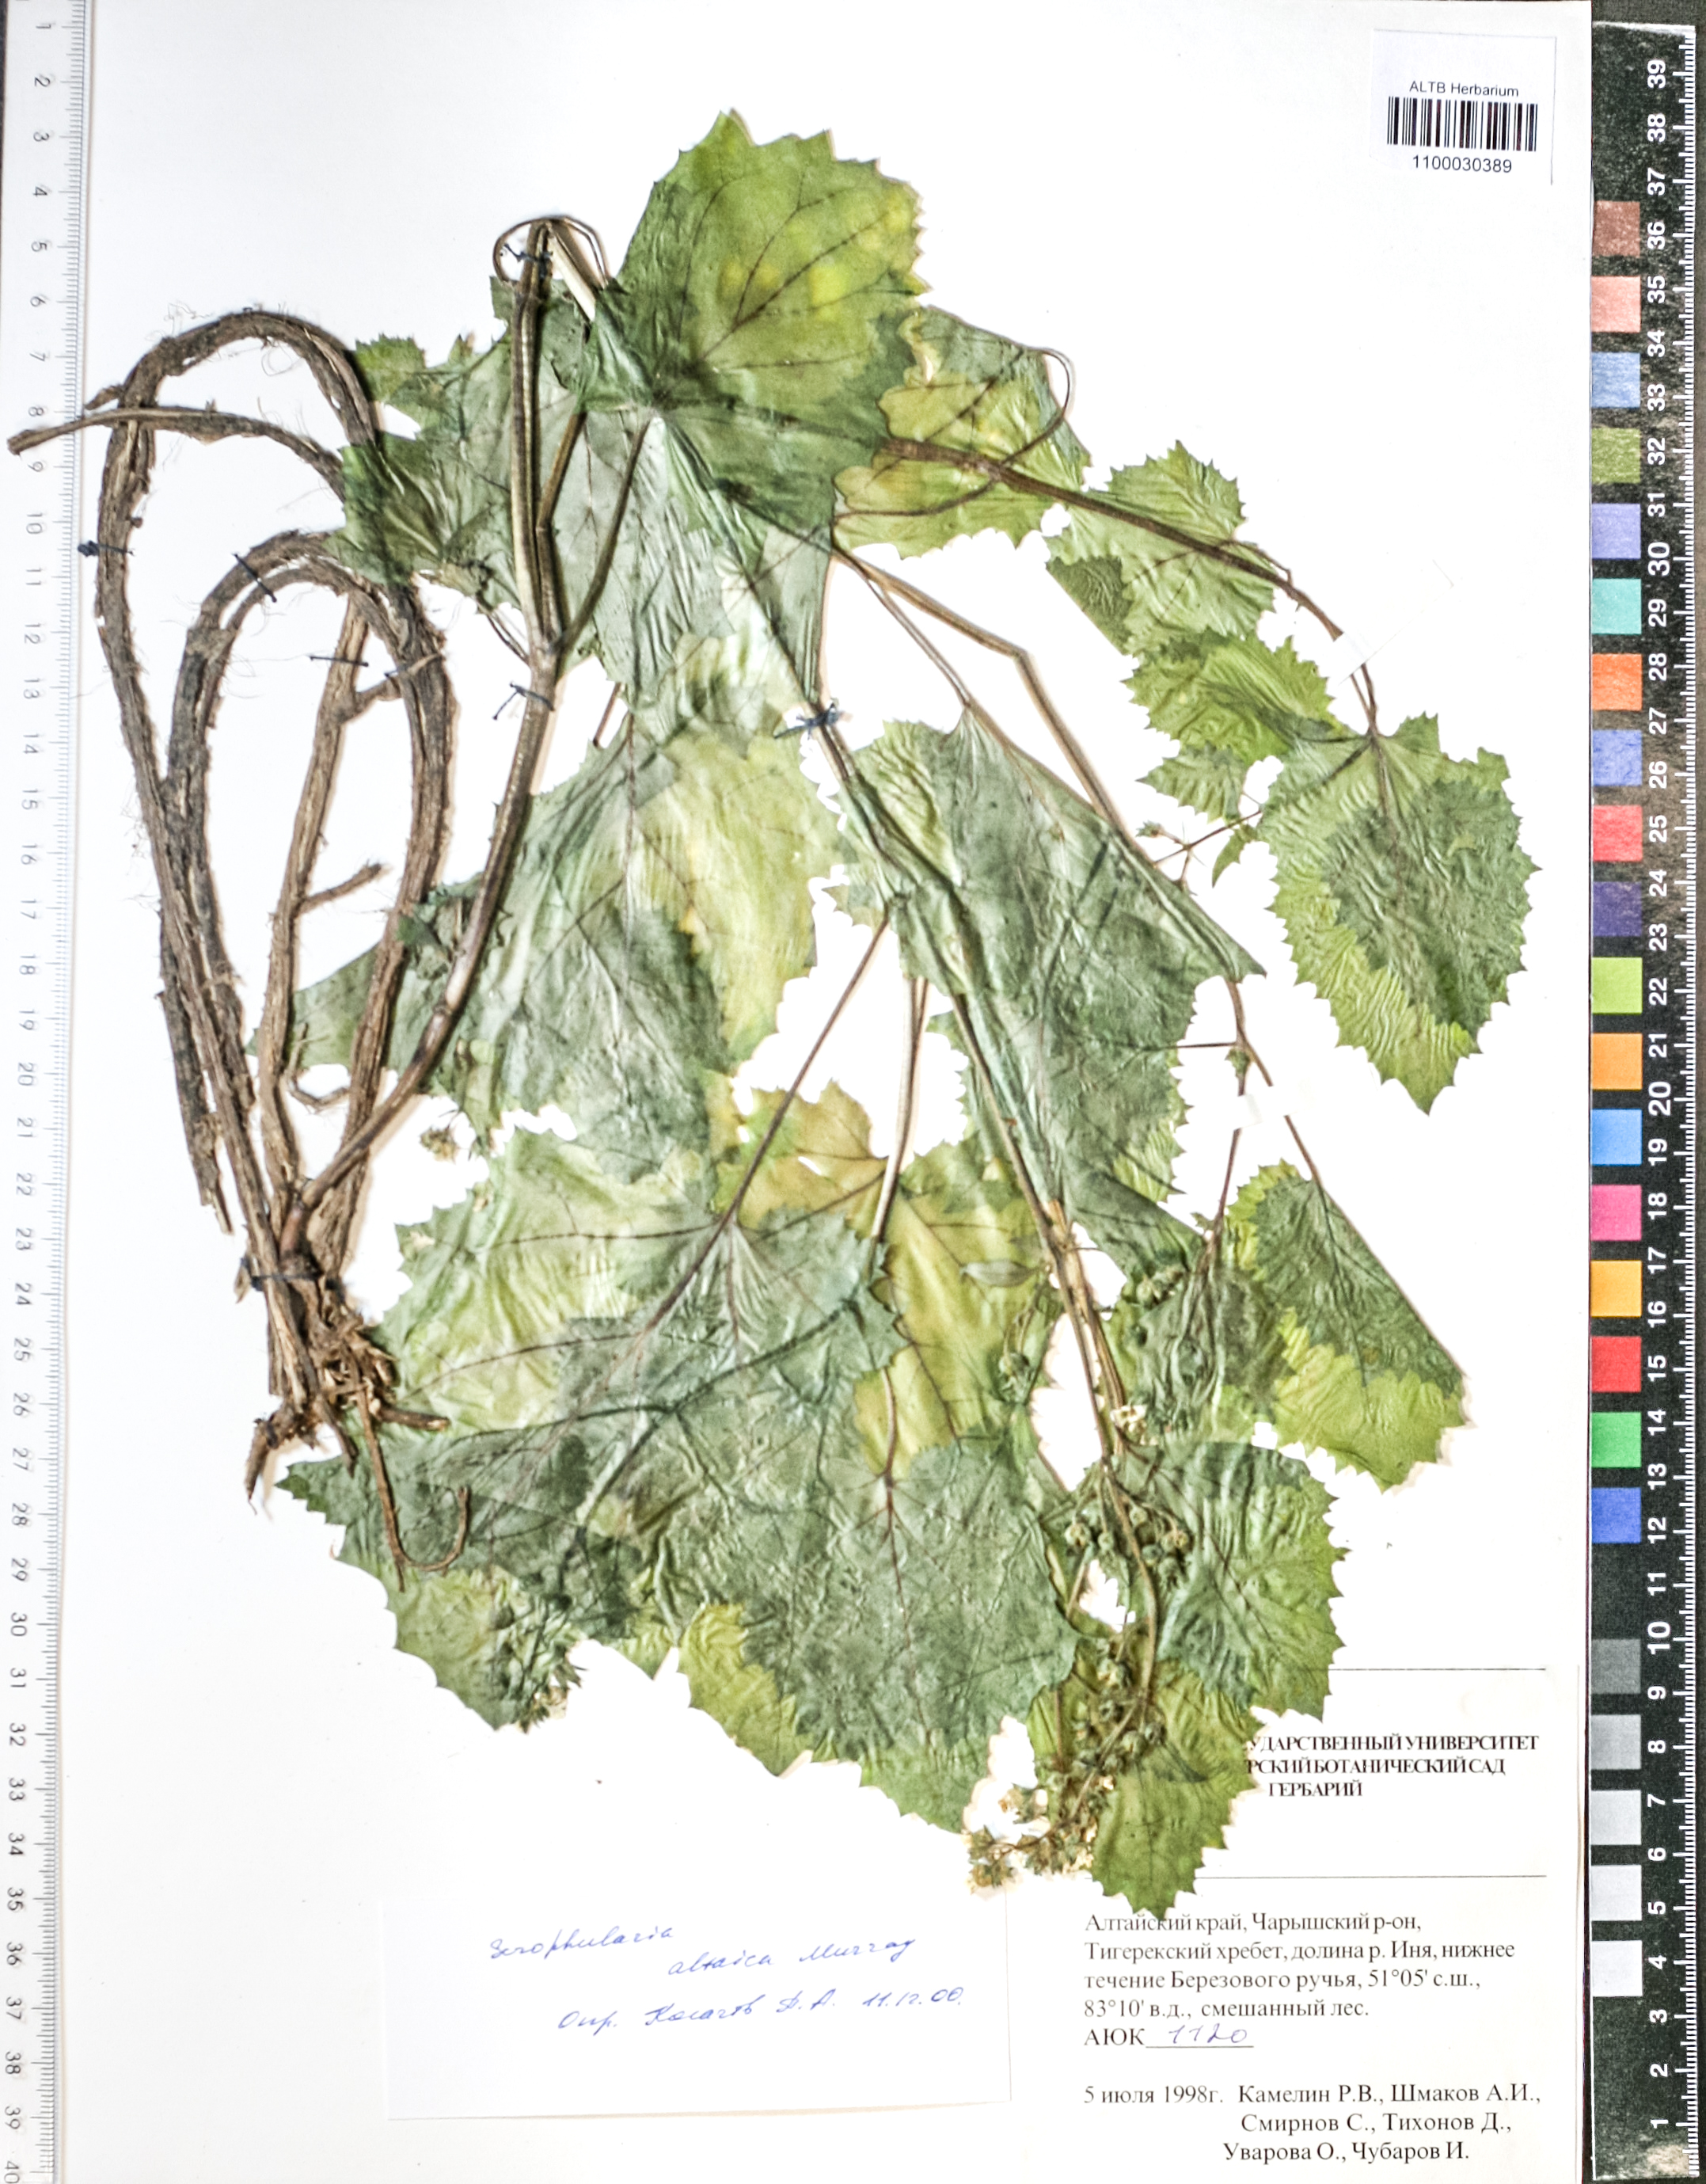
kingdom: Plantae
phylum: Tracheophyta
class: Magnoliopsida
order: Lamiales
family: Scrophulariaceae
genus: Scrophularia
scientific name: Scrophularia altaica
